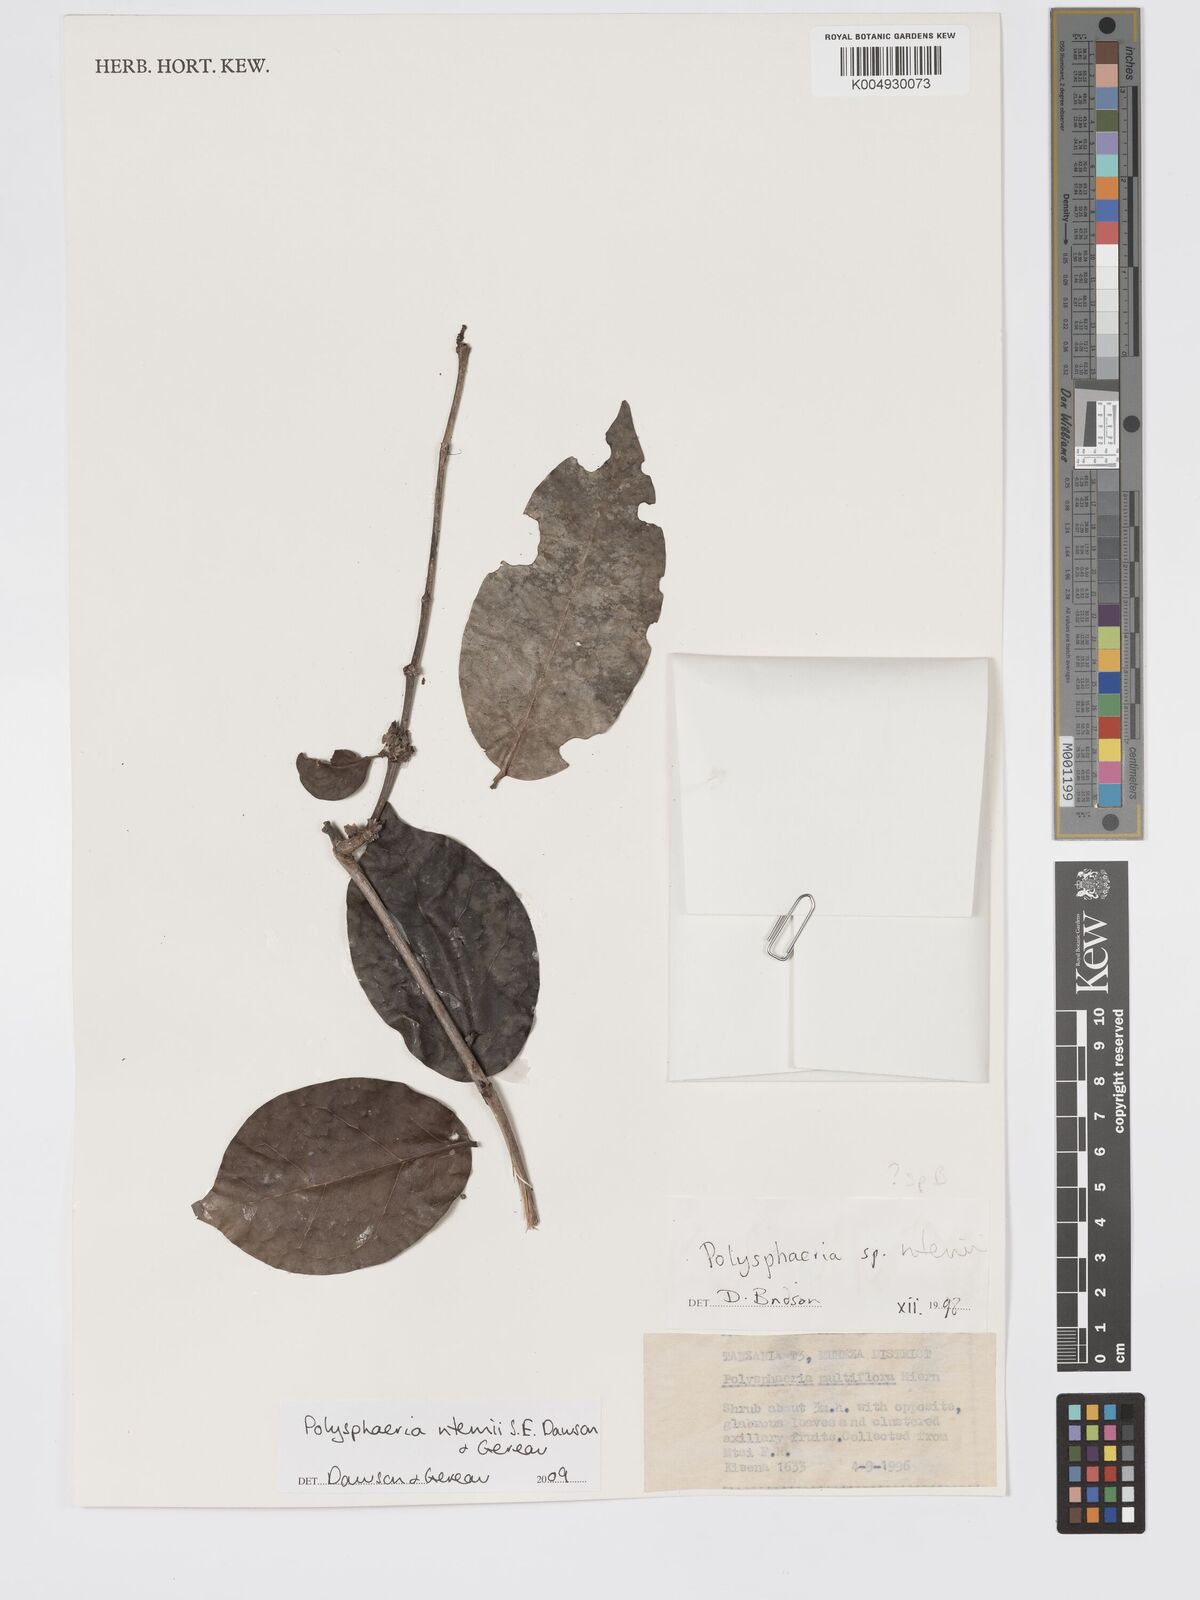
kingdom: Plantae
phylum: Tracheophyta
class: Magnoliopsida
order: Gentianales
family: Rubiaceae
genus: Polysphaeria
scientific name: Polysphaeria ntemii
